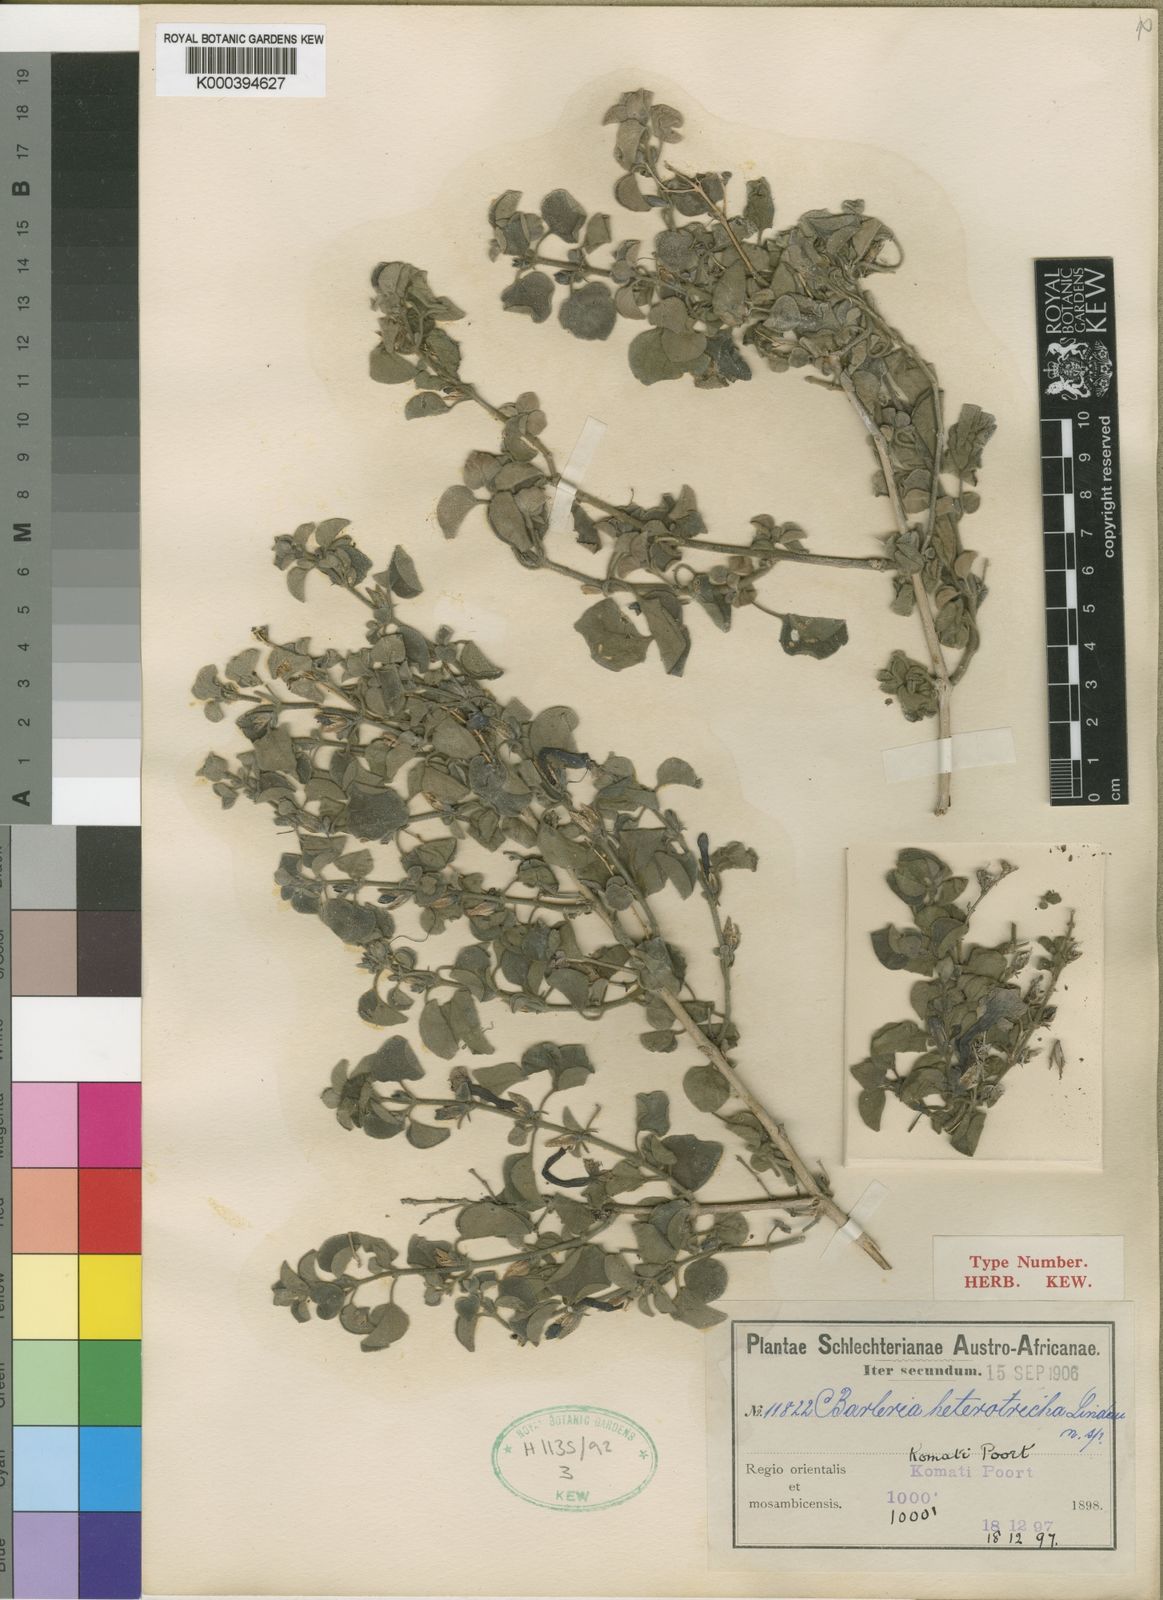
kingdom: Plantae
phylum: Tracheophyta
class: Magnoliopsida
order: Lamiales
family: Acanthaceae
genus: Barleria
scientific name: Barleria heterotricha
